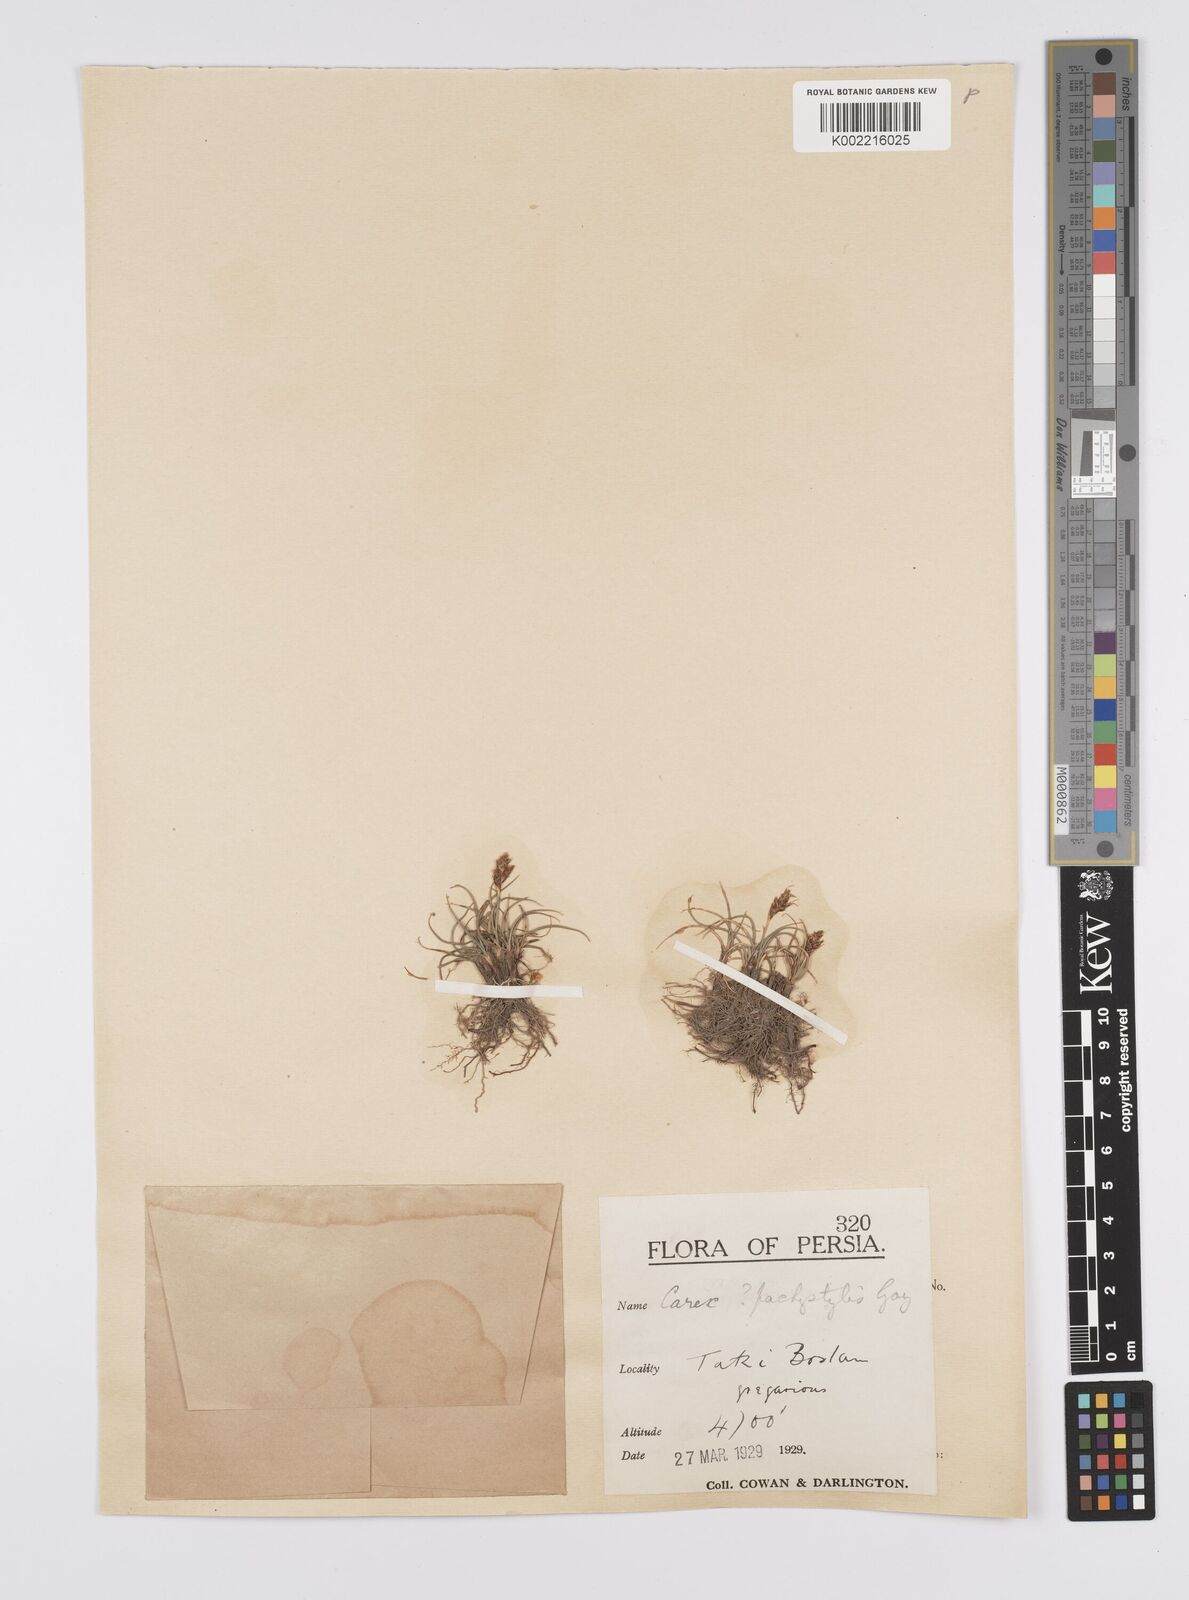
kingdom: Plantae
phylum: Tracheophyta
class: Liliopsida
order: Poales
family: Cyperaceae
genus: Carex
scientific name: Carex pachystylis
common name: Thick-stem sedge
